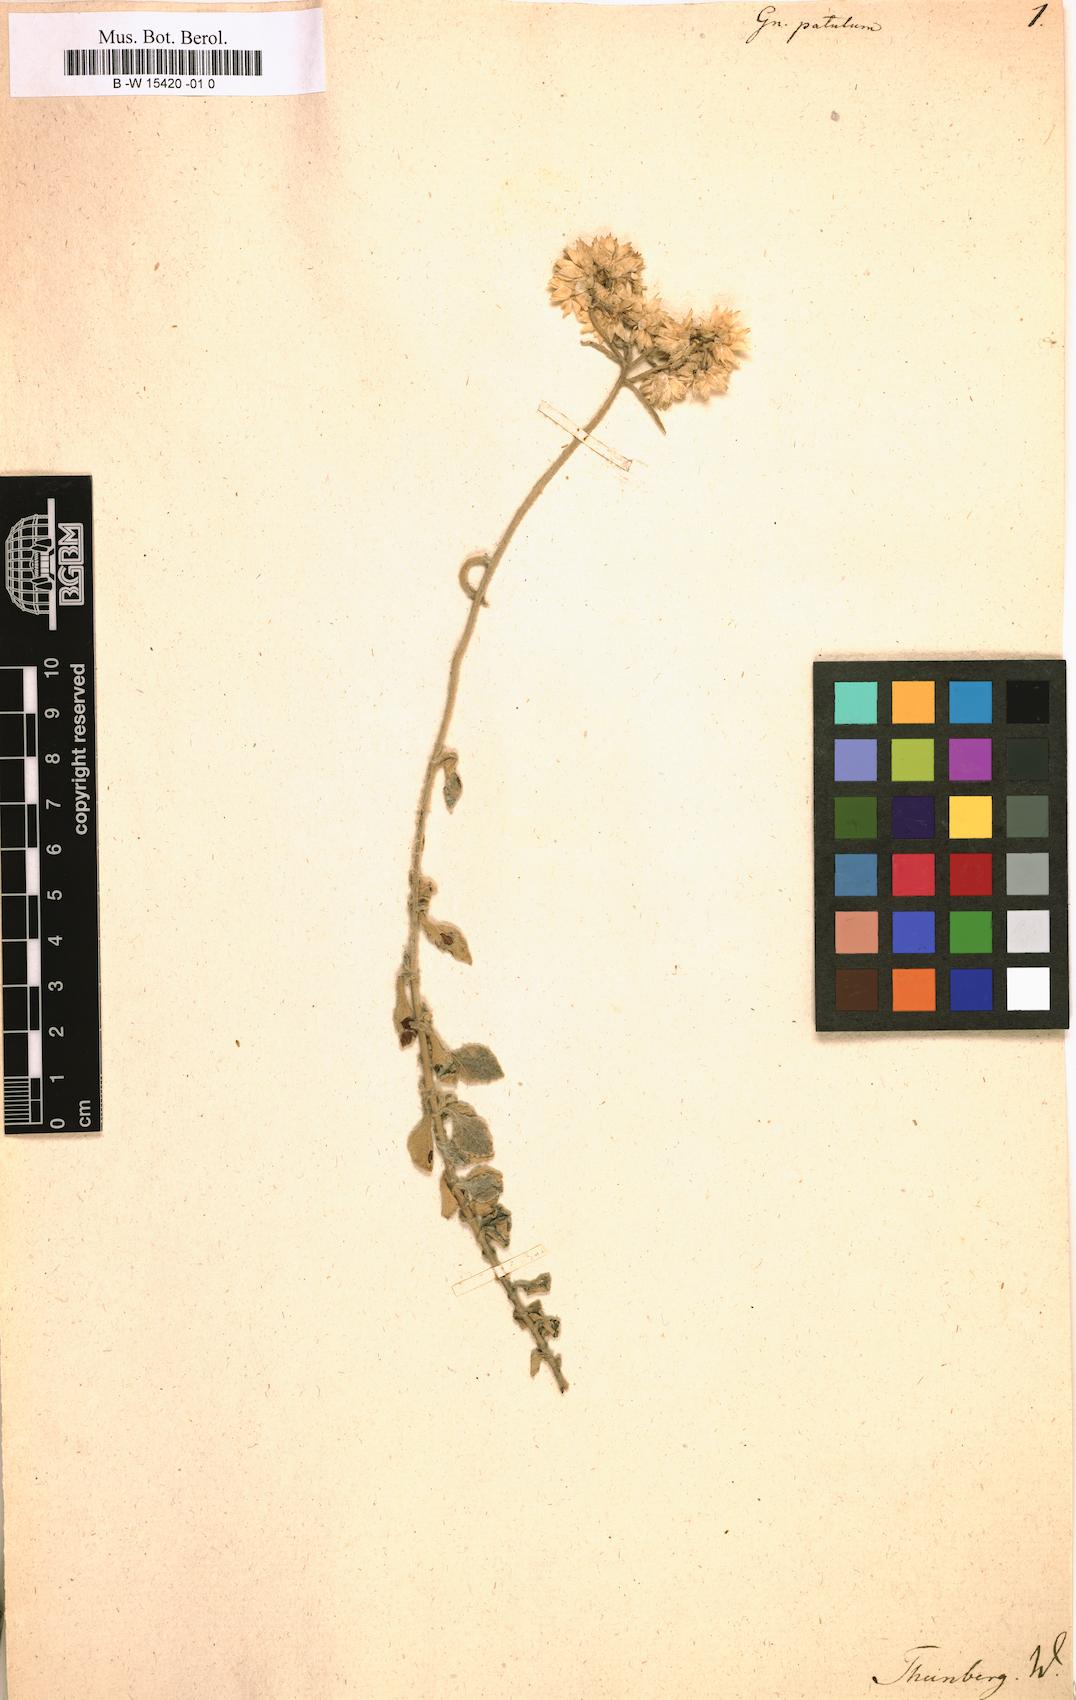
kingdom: Plantae
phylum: Tracheophyta
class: Magnoliopsida
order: Asterales
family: Asteraceae
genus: Helichrysum
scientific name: Helichrysum patulum
